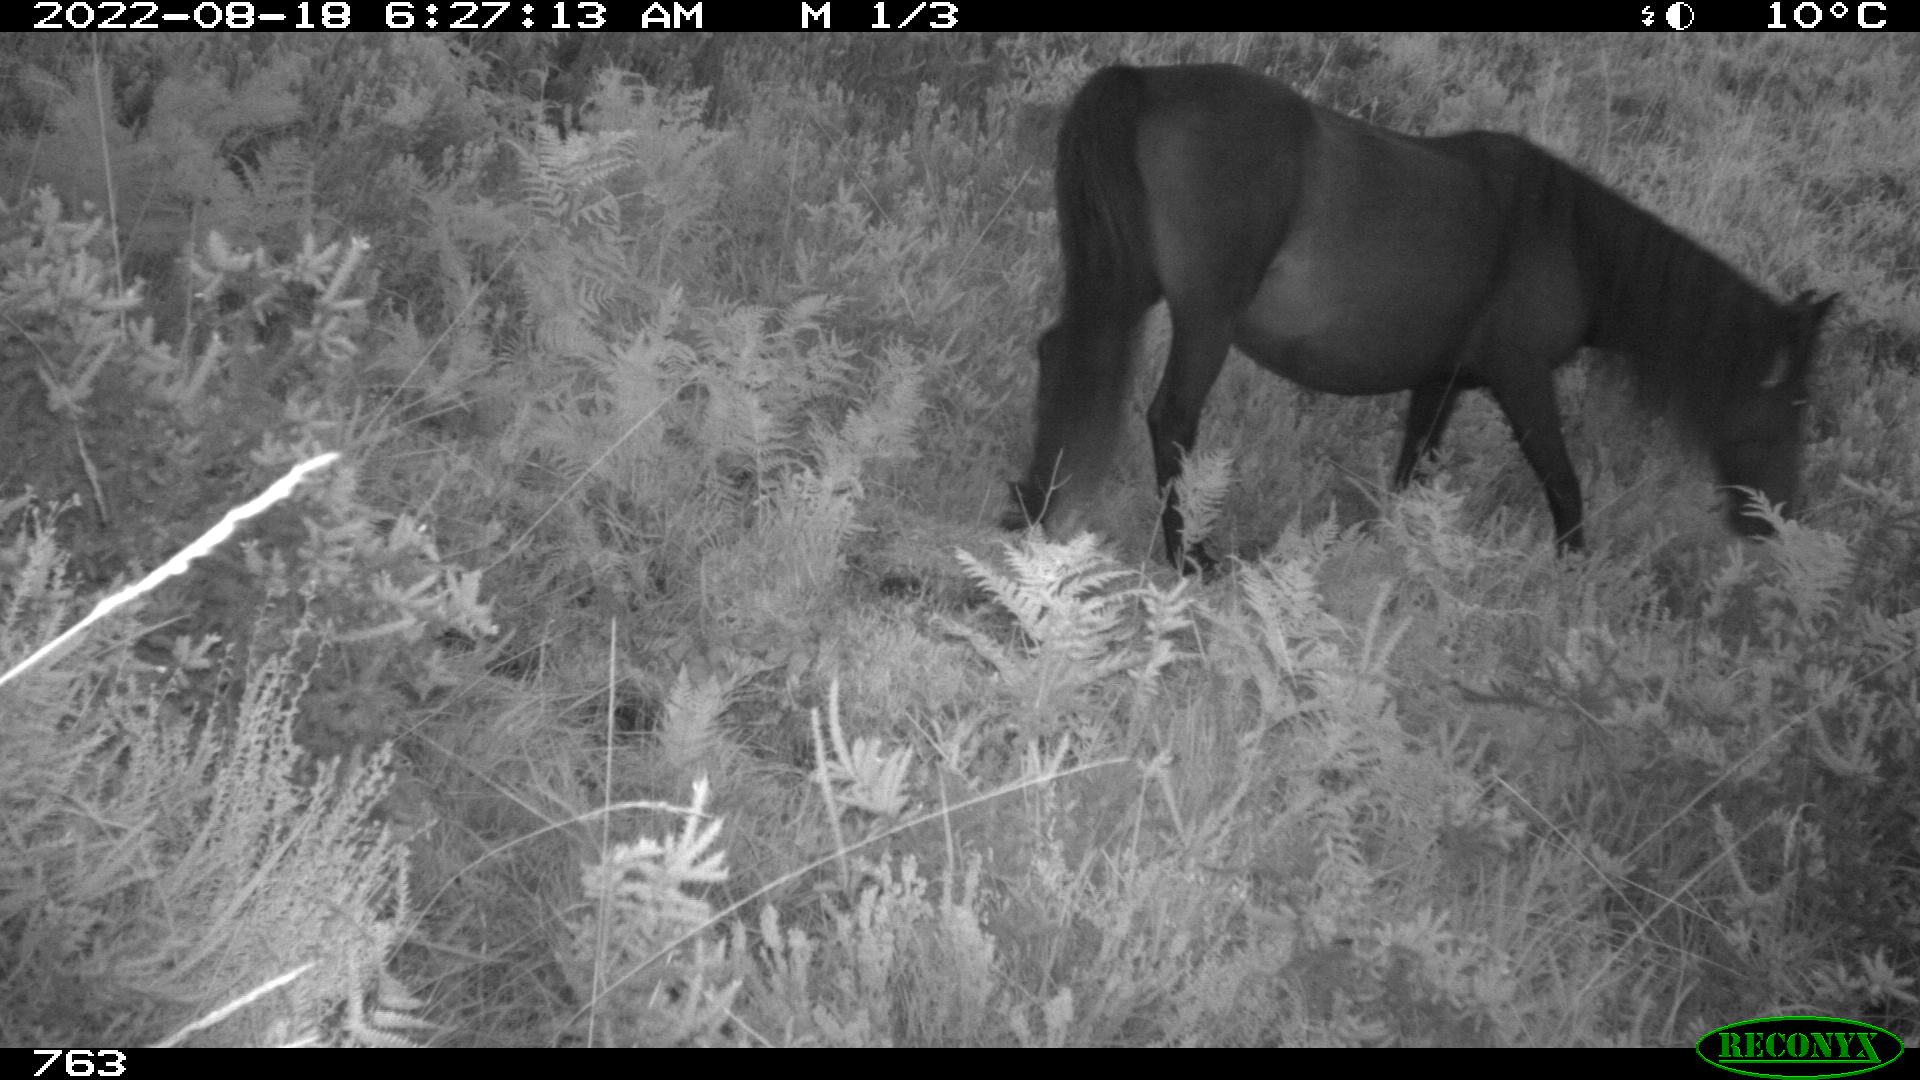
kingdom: Animalia
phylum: Chordata
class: Mammalia
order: Perissodactyla
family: Equidae
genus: Equus
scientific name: Equus caballus
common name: Horse
